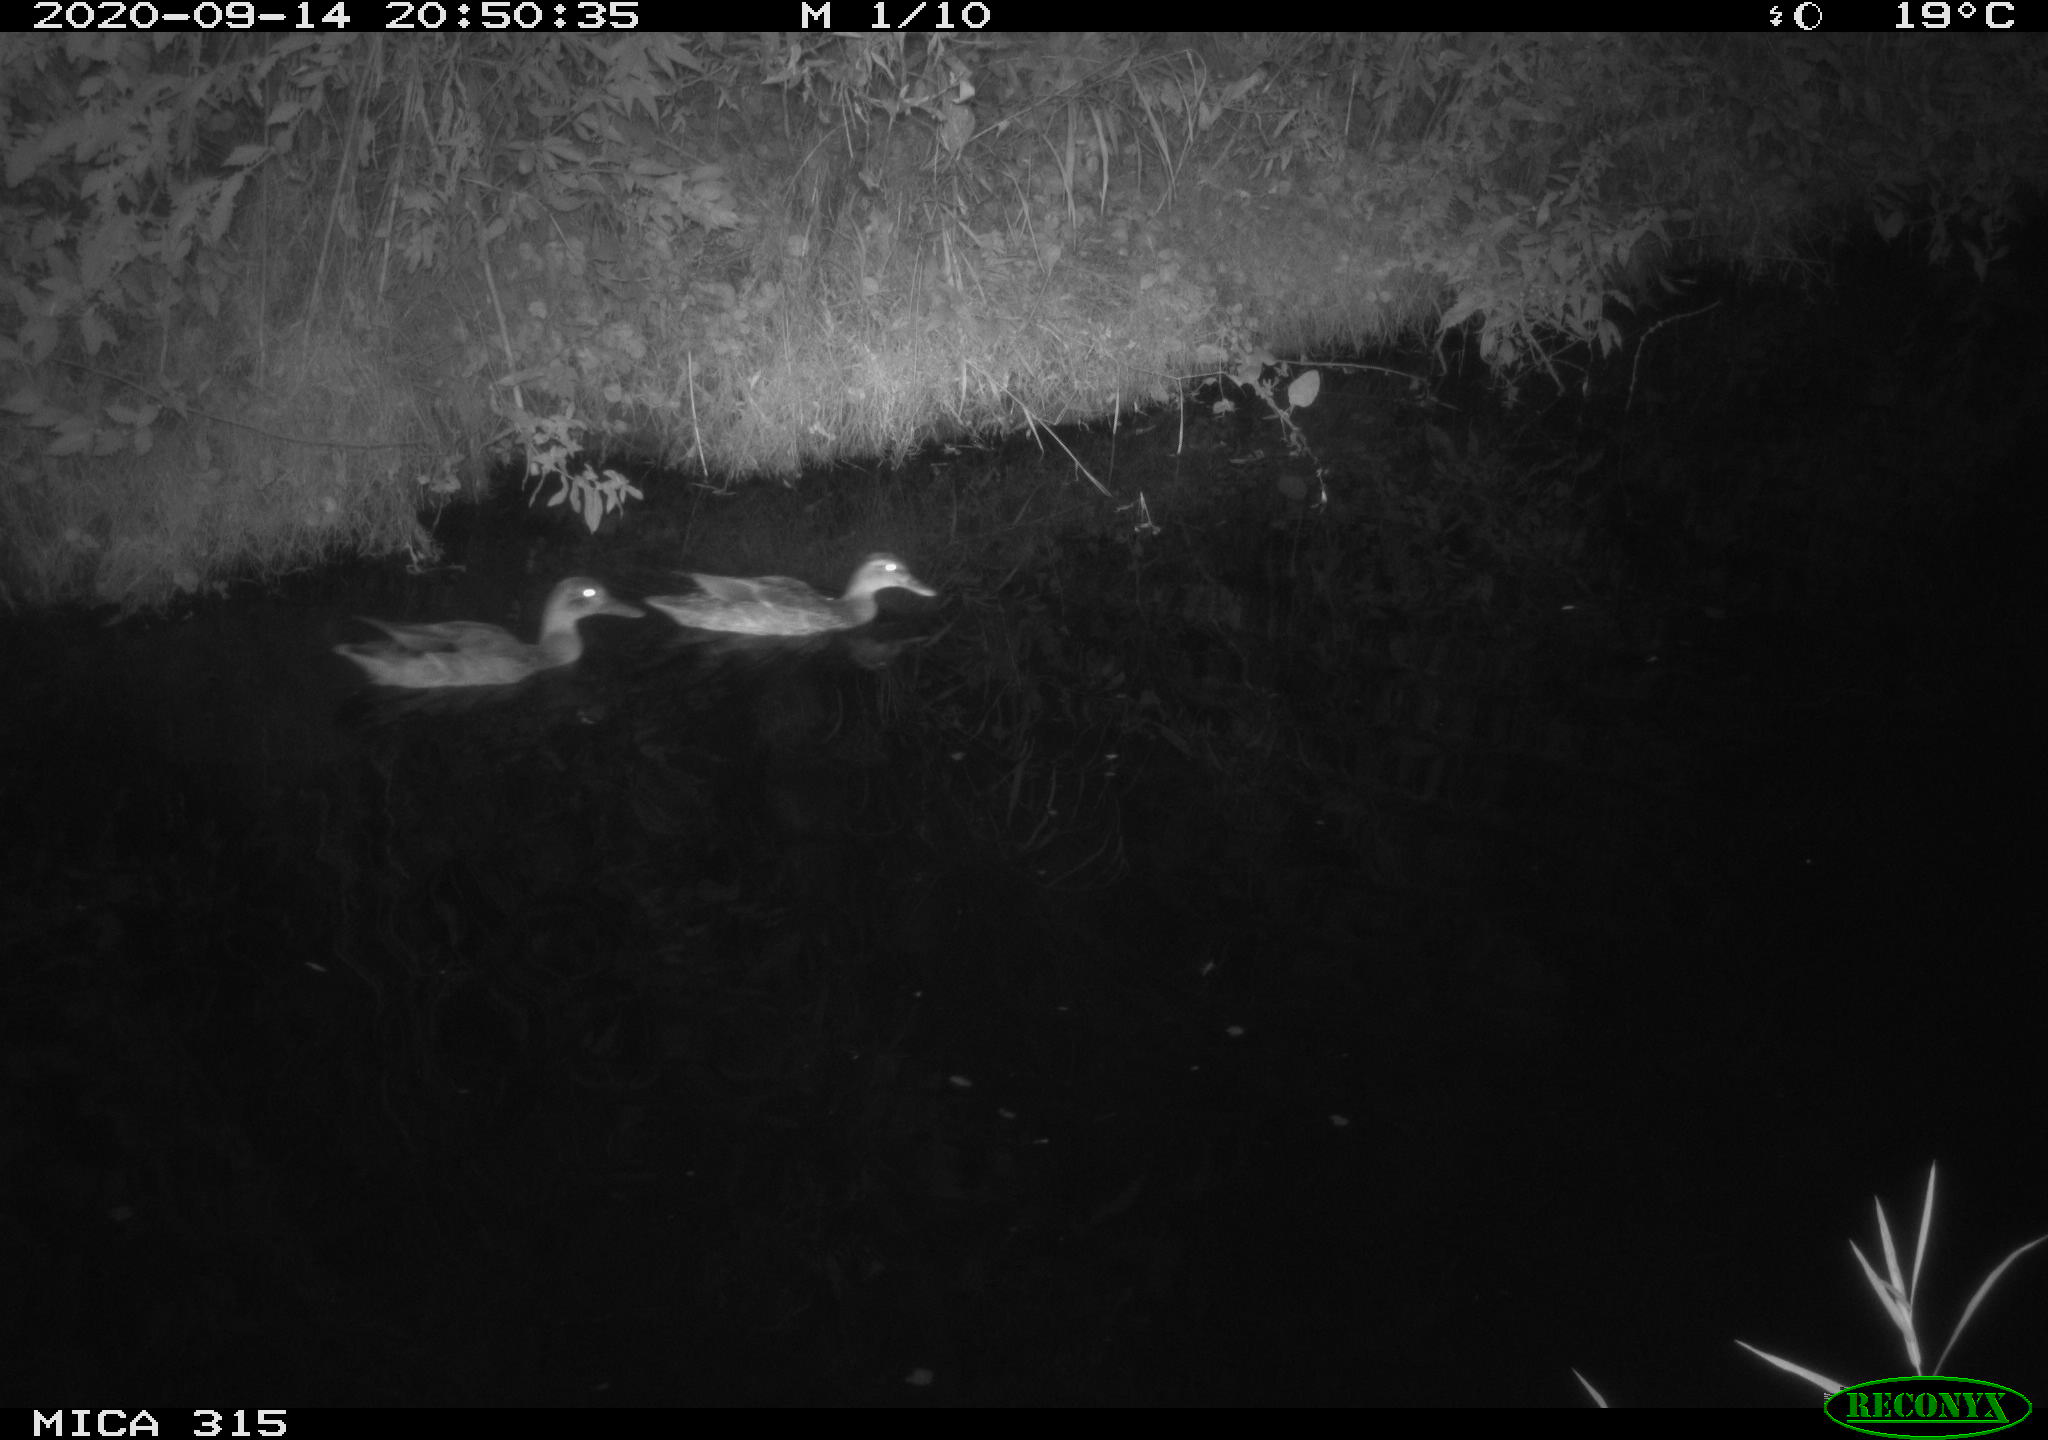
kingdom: Animalia
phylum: Chordata
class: Aves
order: Anseriformes
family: Anatidae
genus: Anas
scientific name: Anas platyrhynchos
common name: Mallard
